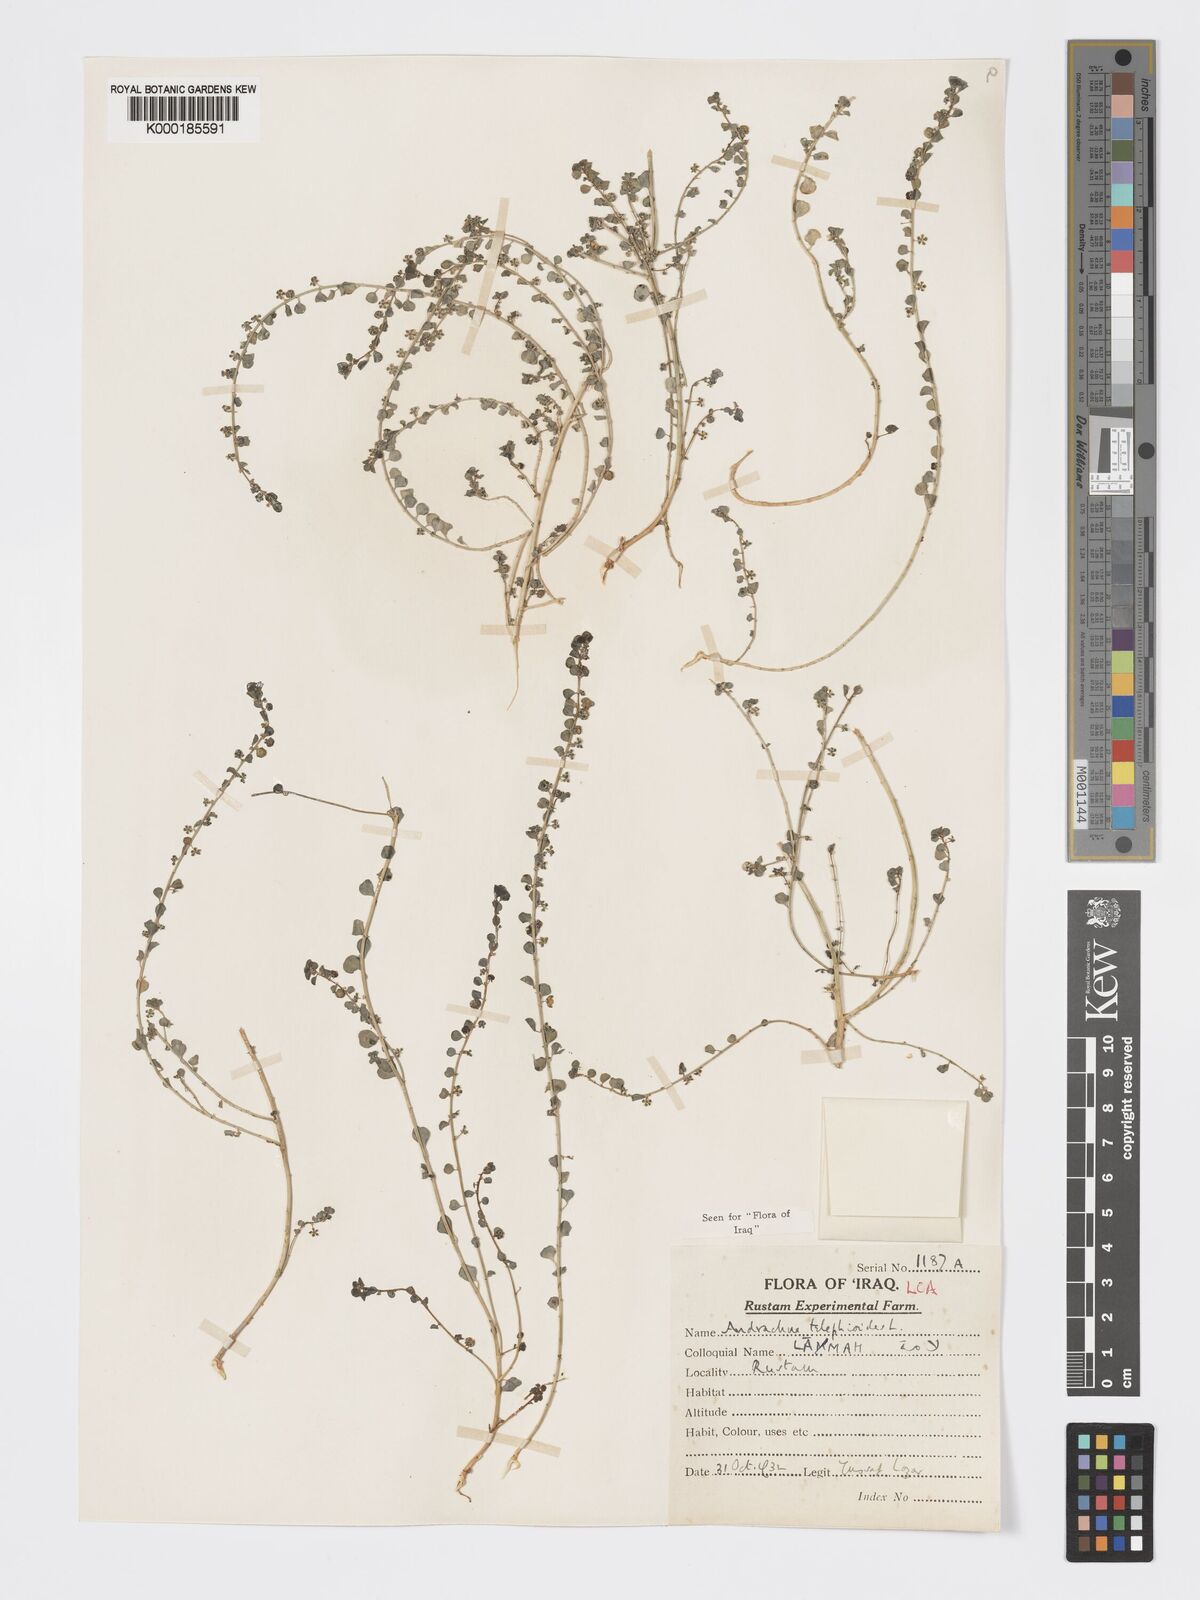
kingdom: Plantae
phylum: Tracheophyta
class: Magnoliopsida
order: Malpighiales
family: Phyllanthaceae
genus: Andrachne
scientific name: Andrachne telephioides
